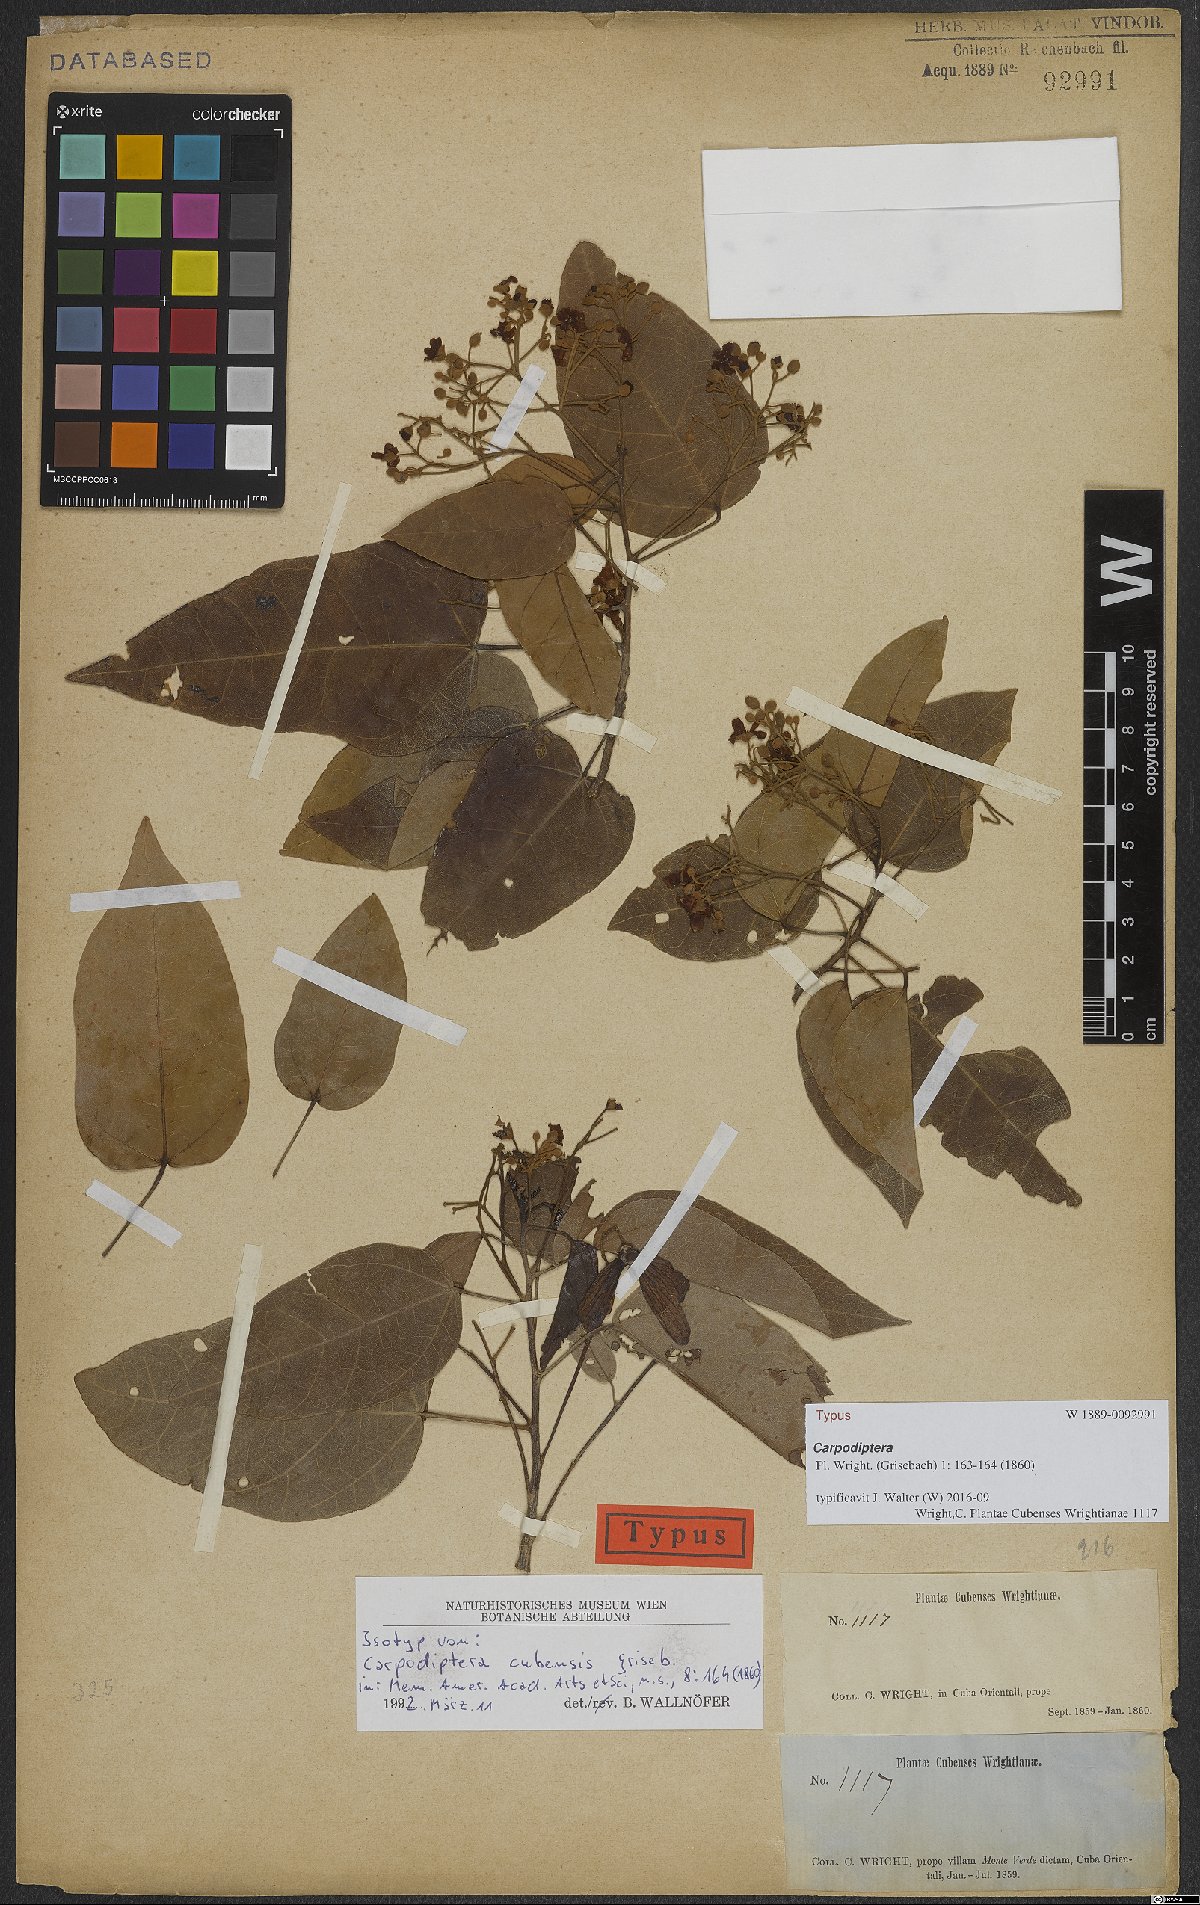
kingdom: Plantae
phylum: Tracheophyta
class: Magnoliopsida
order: Malvales
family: Malvaceae
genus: Berrya
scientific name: Berrya cubensis
